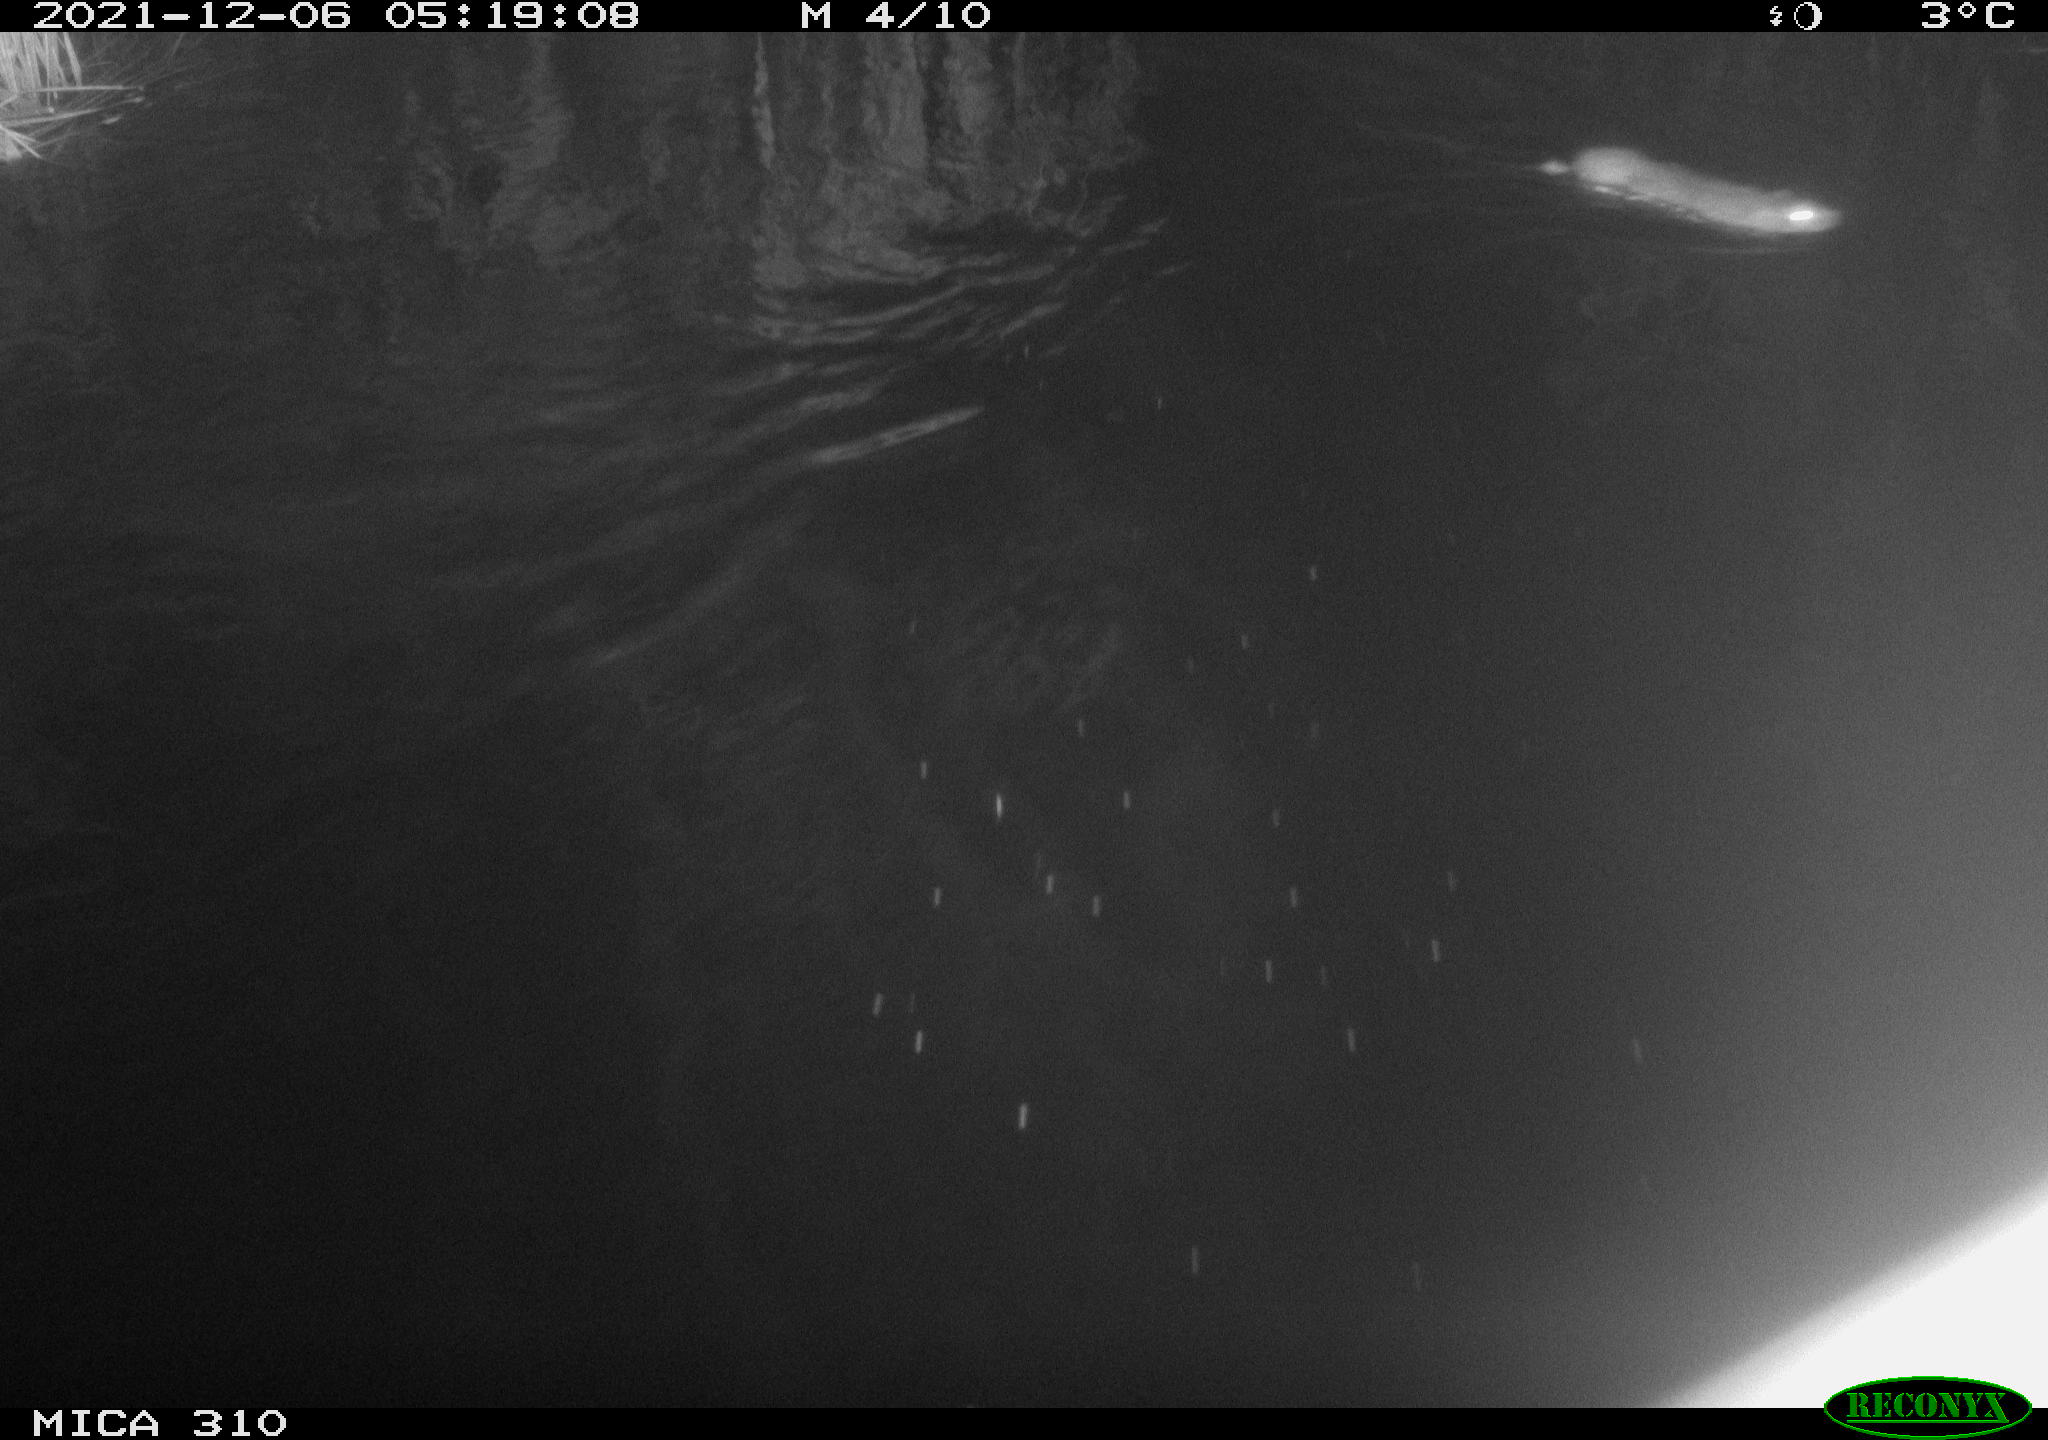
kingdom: Animalia
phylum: Chordata
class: Mammalia
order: Rodentia
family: Muridae
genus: Rattus
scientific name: Rattus norvegicus
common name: Brown rat
